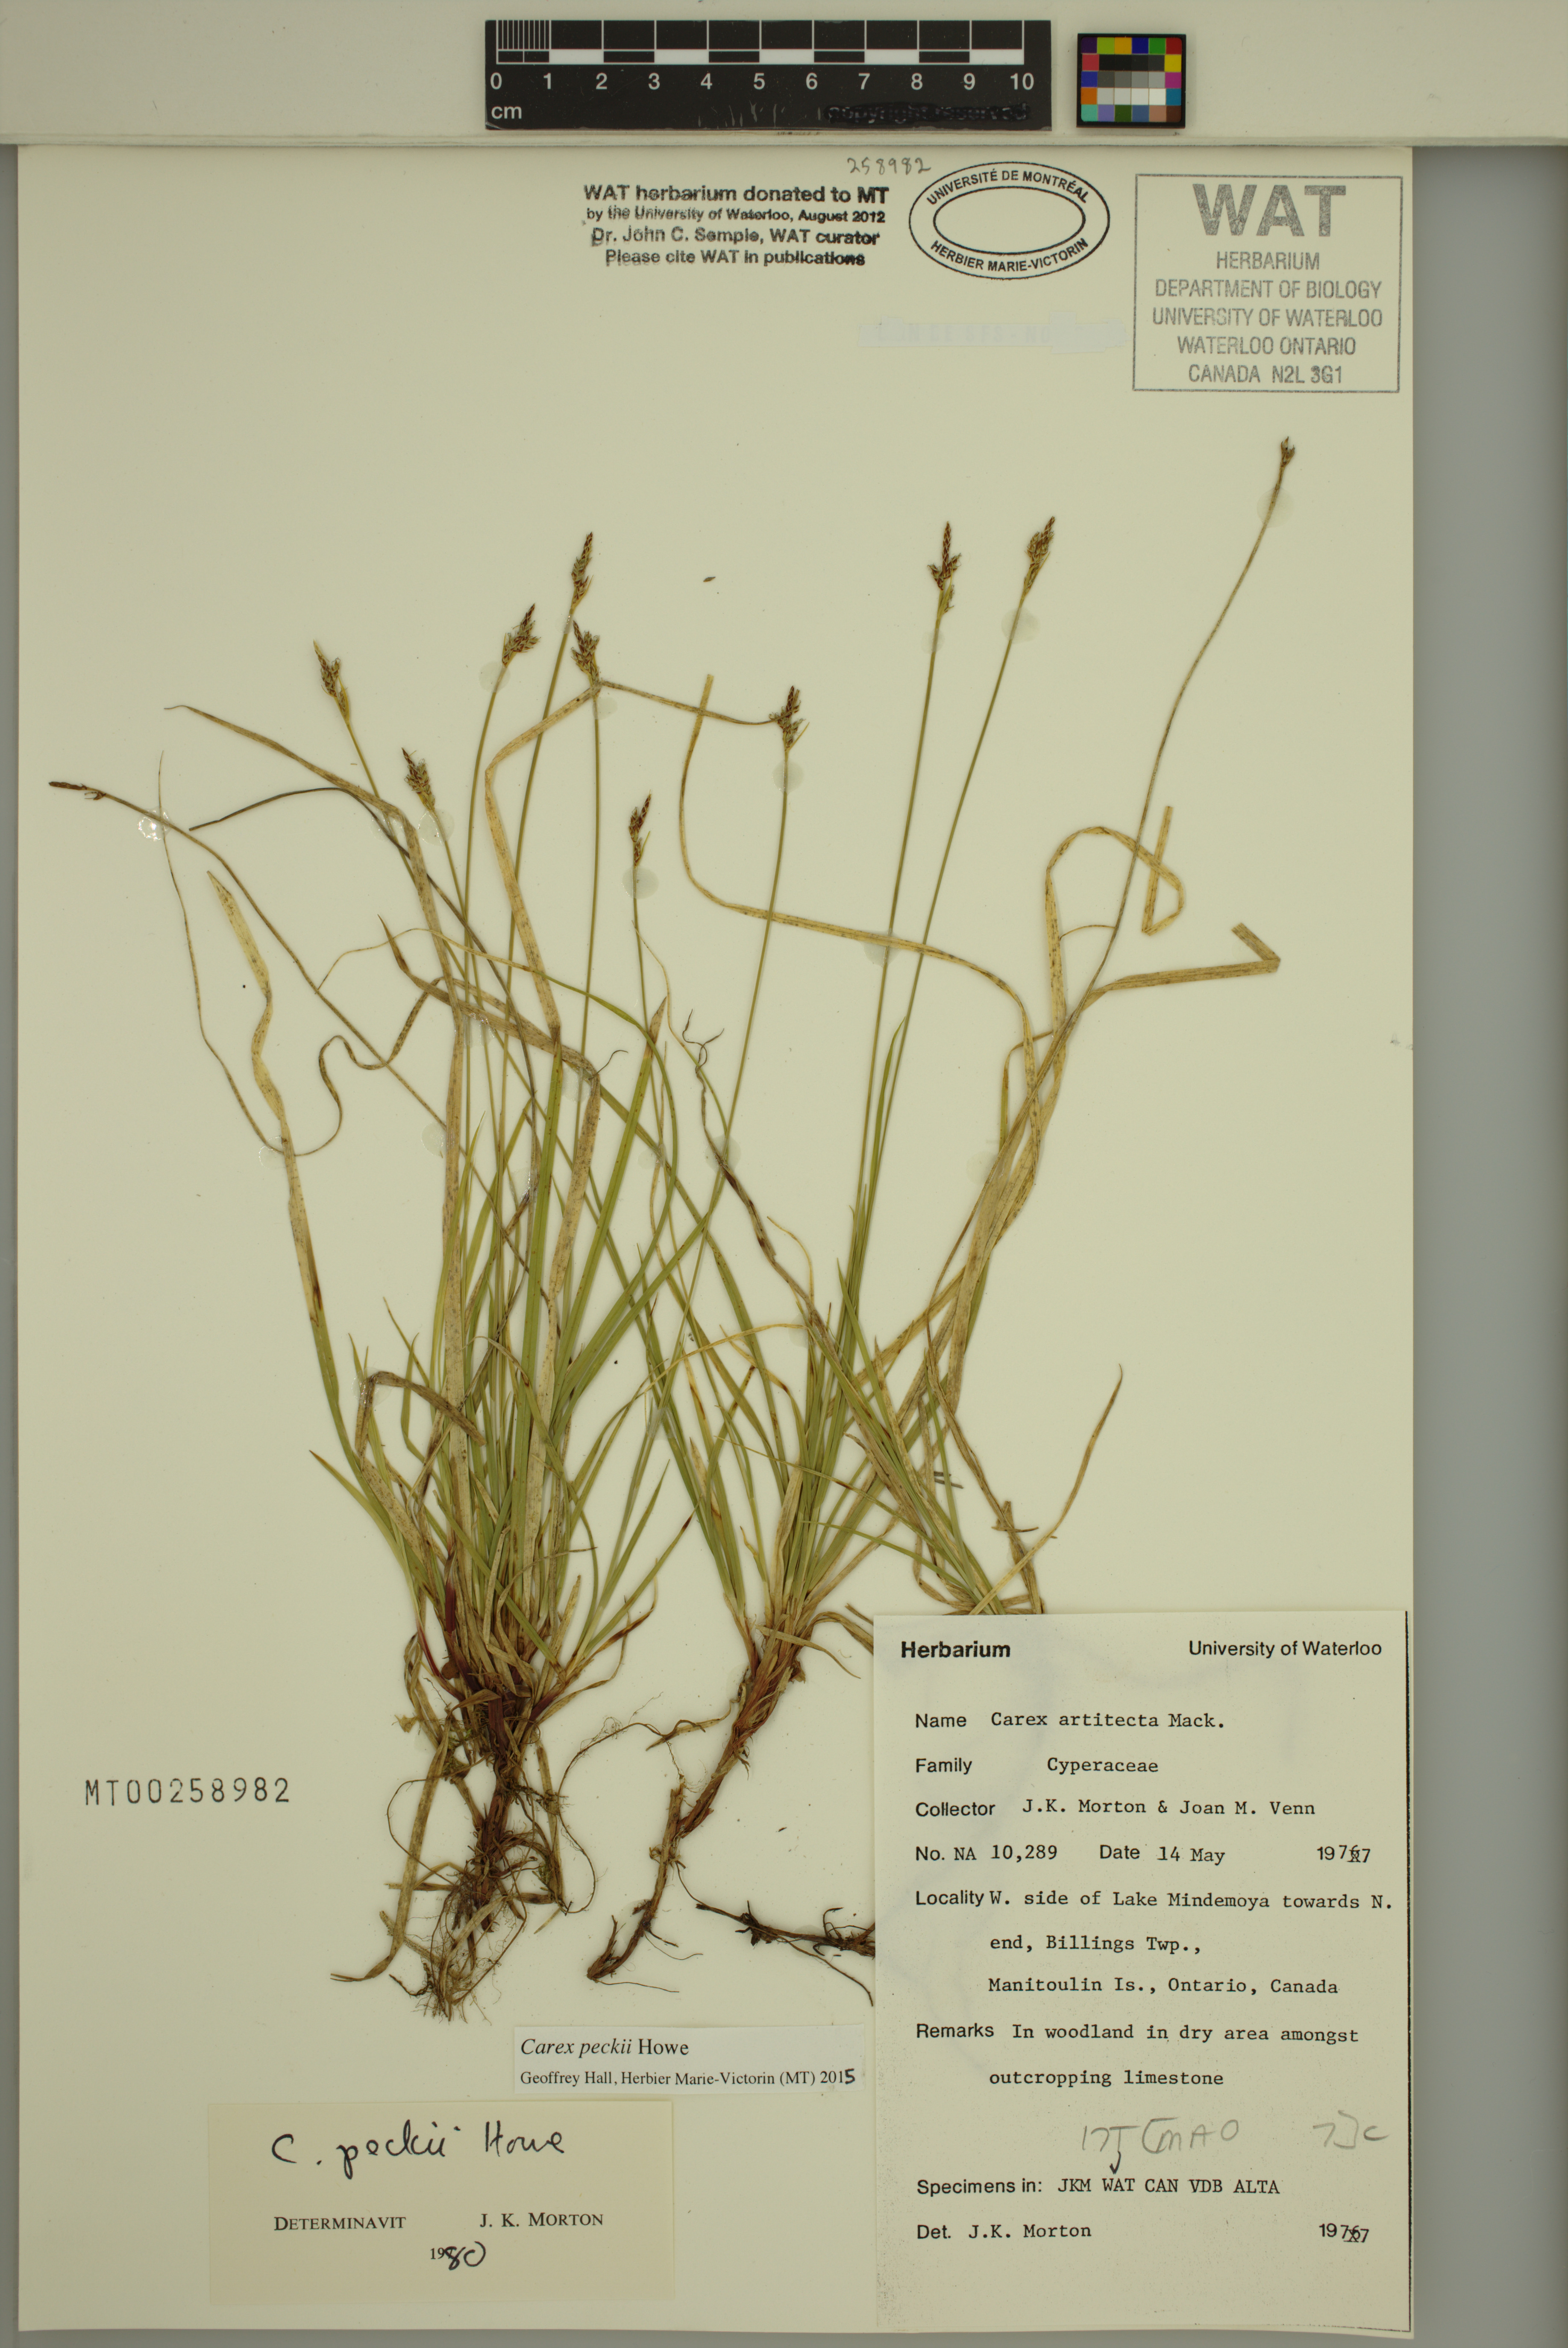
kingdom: Plantae
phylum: Tracheophyta
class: Liliopsida
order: Poales
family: Cyperaceae
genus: Carex
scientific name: Carex peckii
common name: Peck's oak sedge
